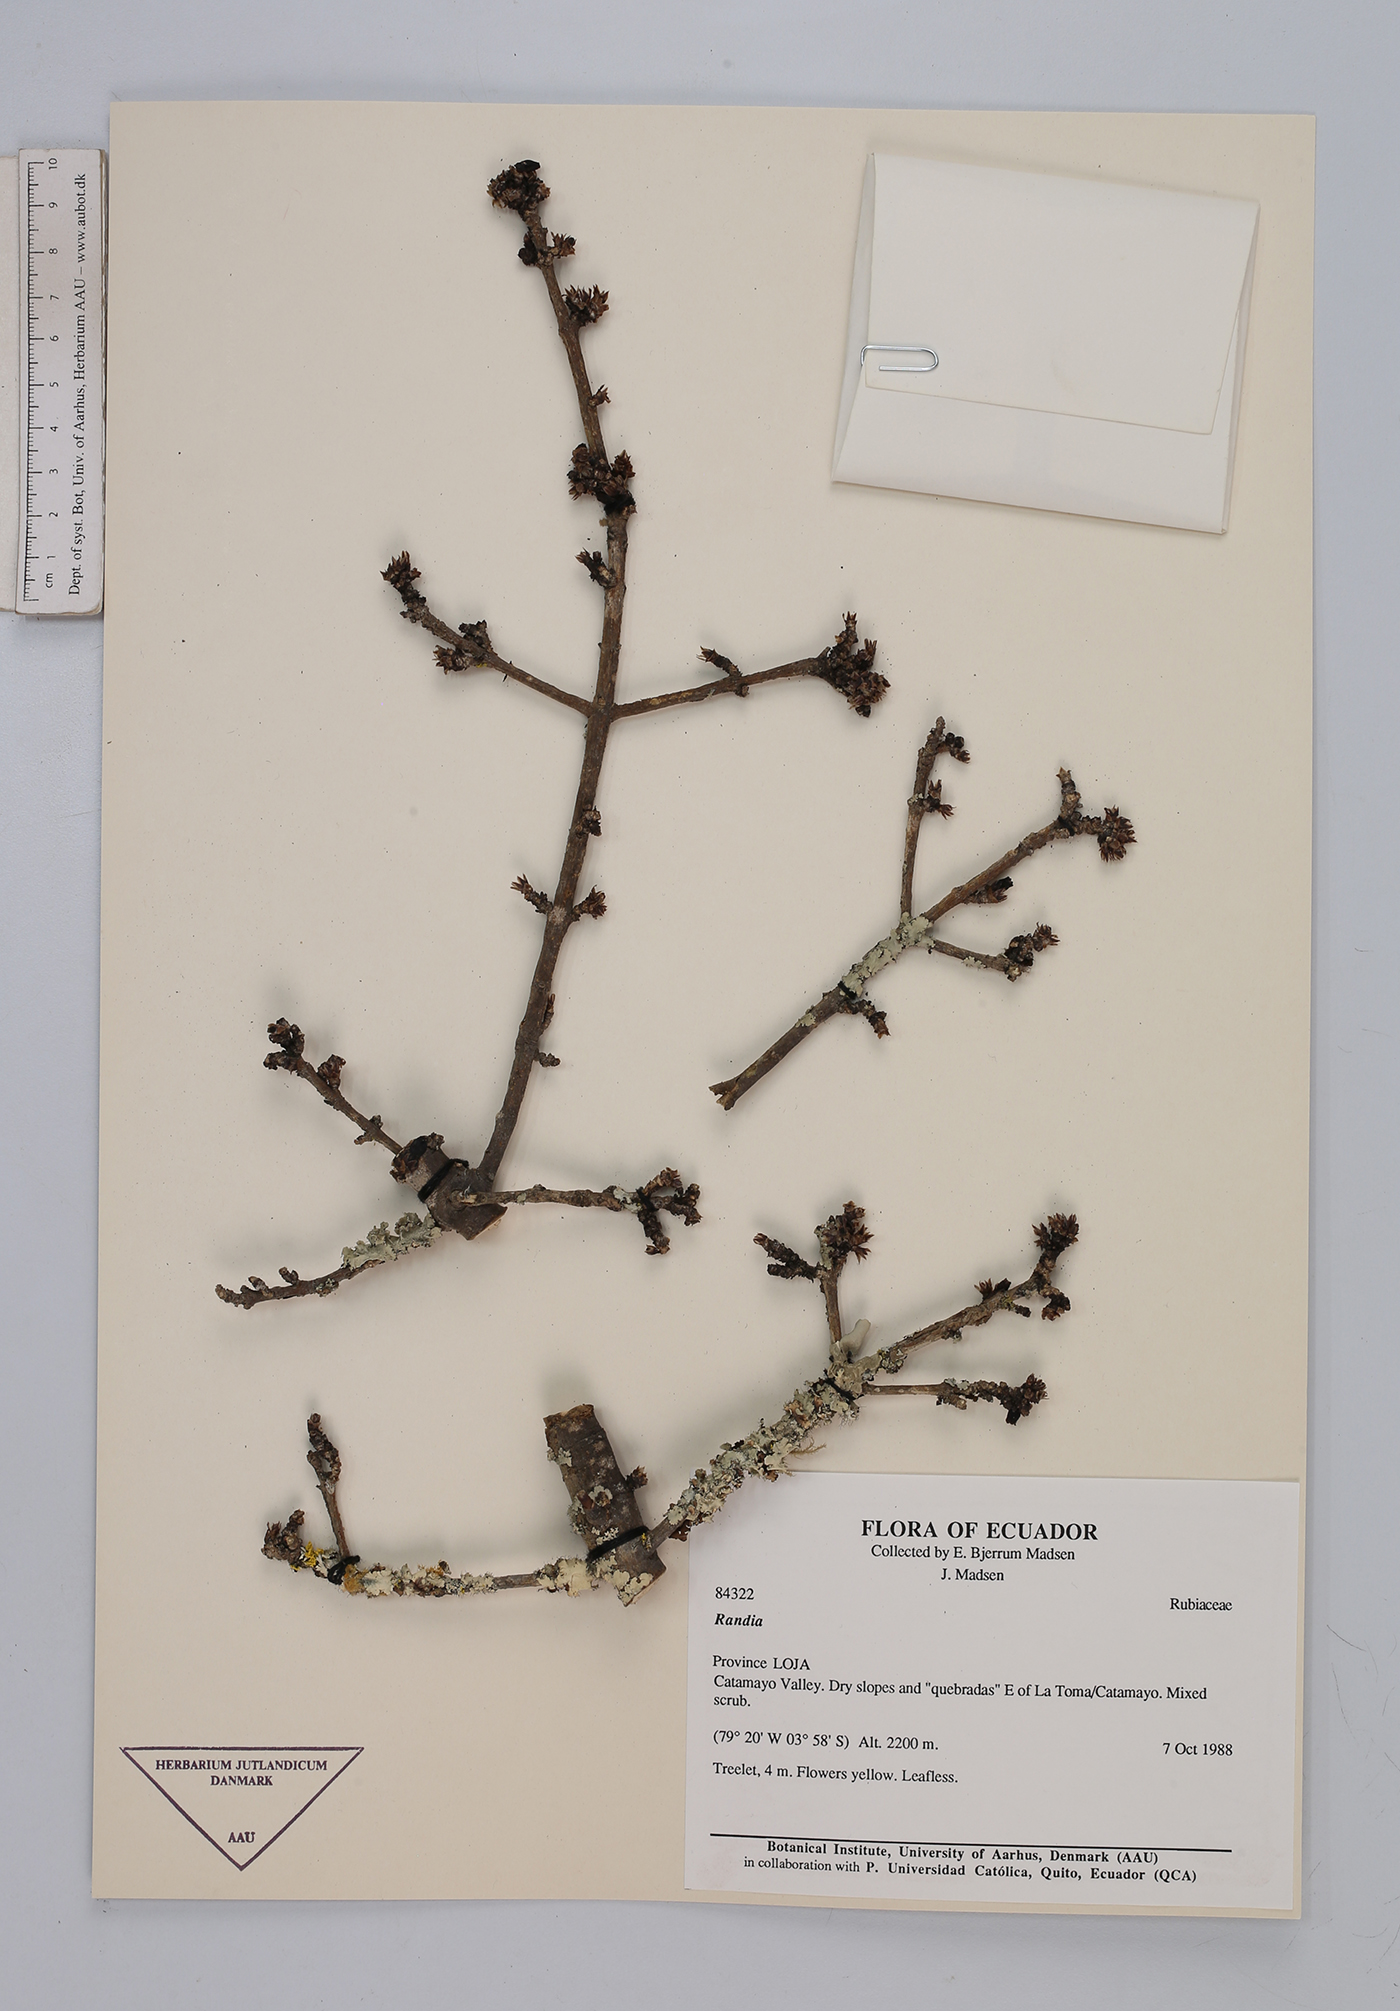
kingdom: Plantae
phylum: Tracheophyta
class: Magnoliopsida
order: Gentianales
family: Rubiaceae
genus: Randia
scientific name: Randia
